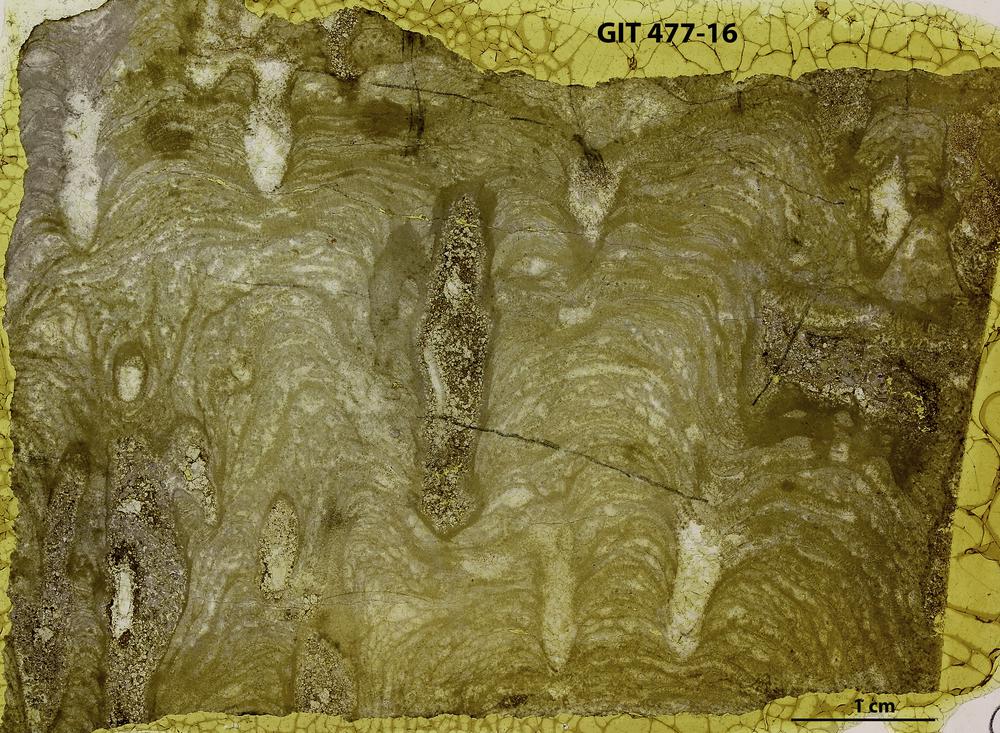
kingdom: Animalia
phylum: Porifera
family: Stylostromatidae
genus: Pachystylostroma
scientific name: Pachystylostroma
